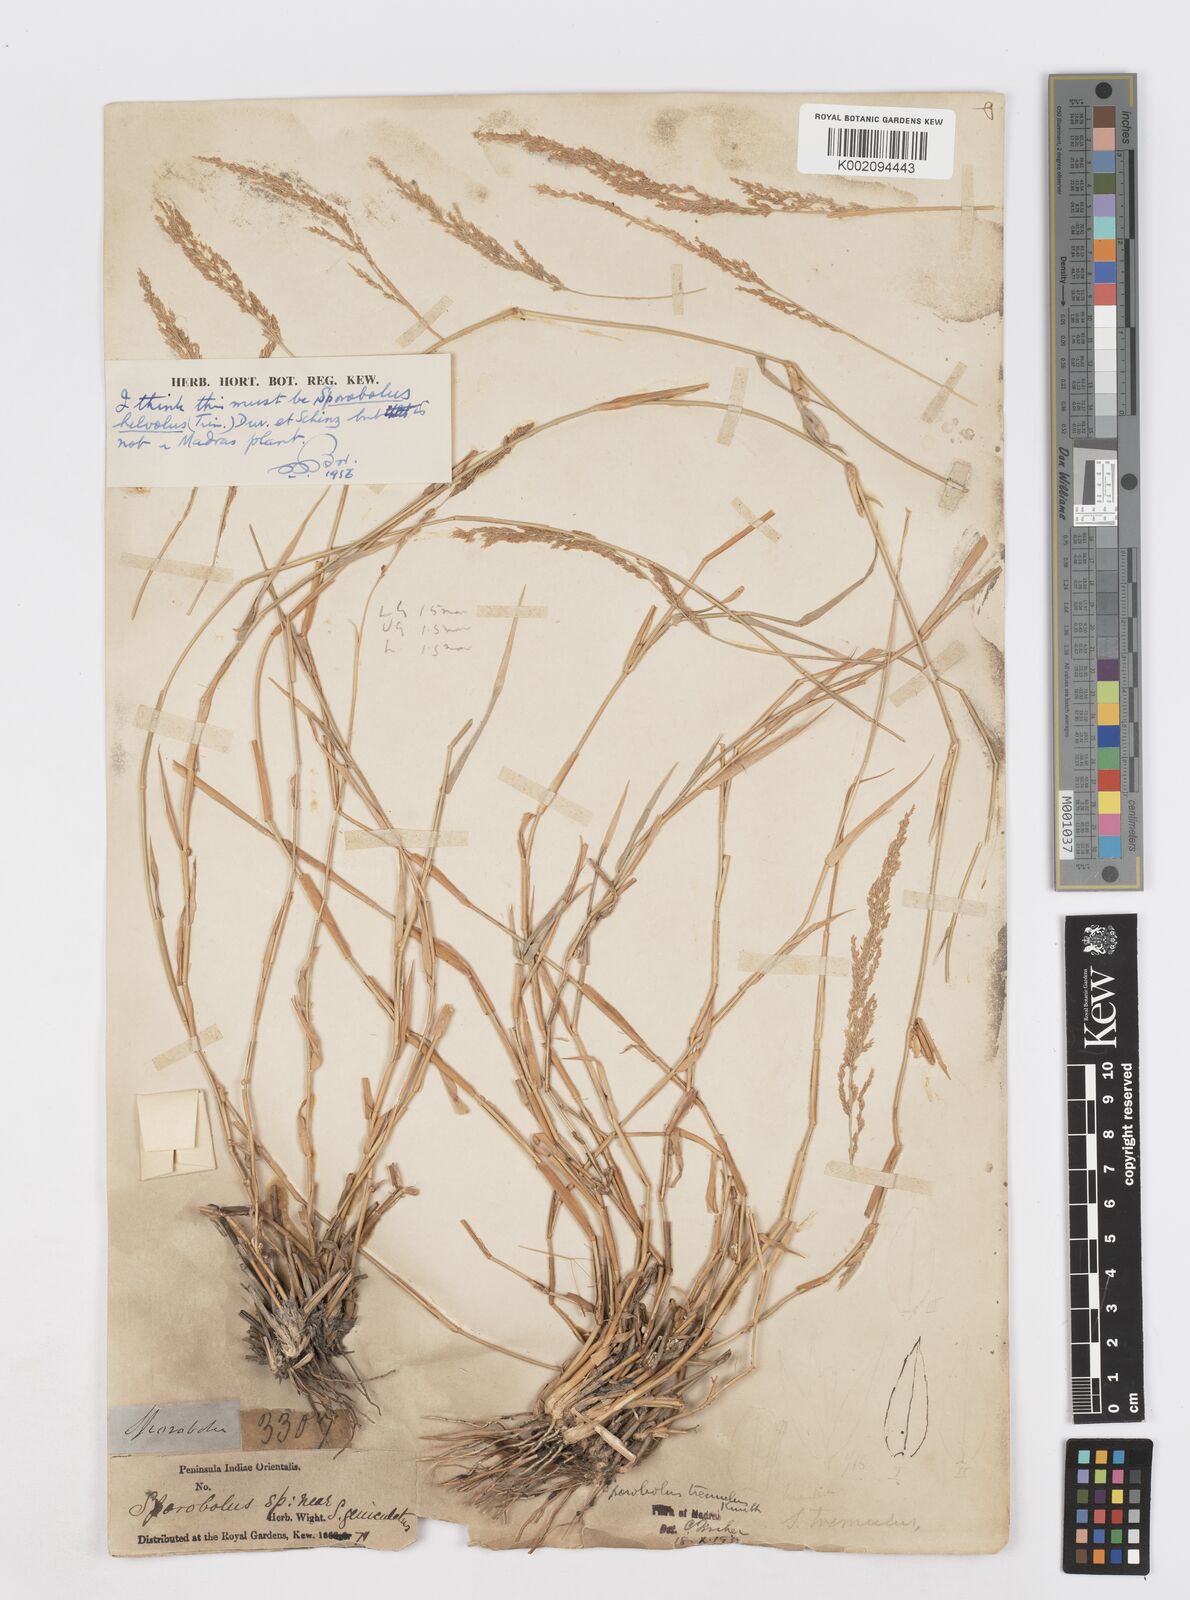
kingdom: Plantae
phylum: Tracheophyta
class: Liliopsida
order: Poales
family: Poaceae
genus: Sporobolus
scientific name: Sporobolus helvolus
